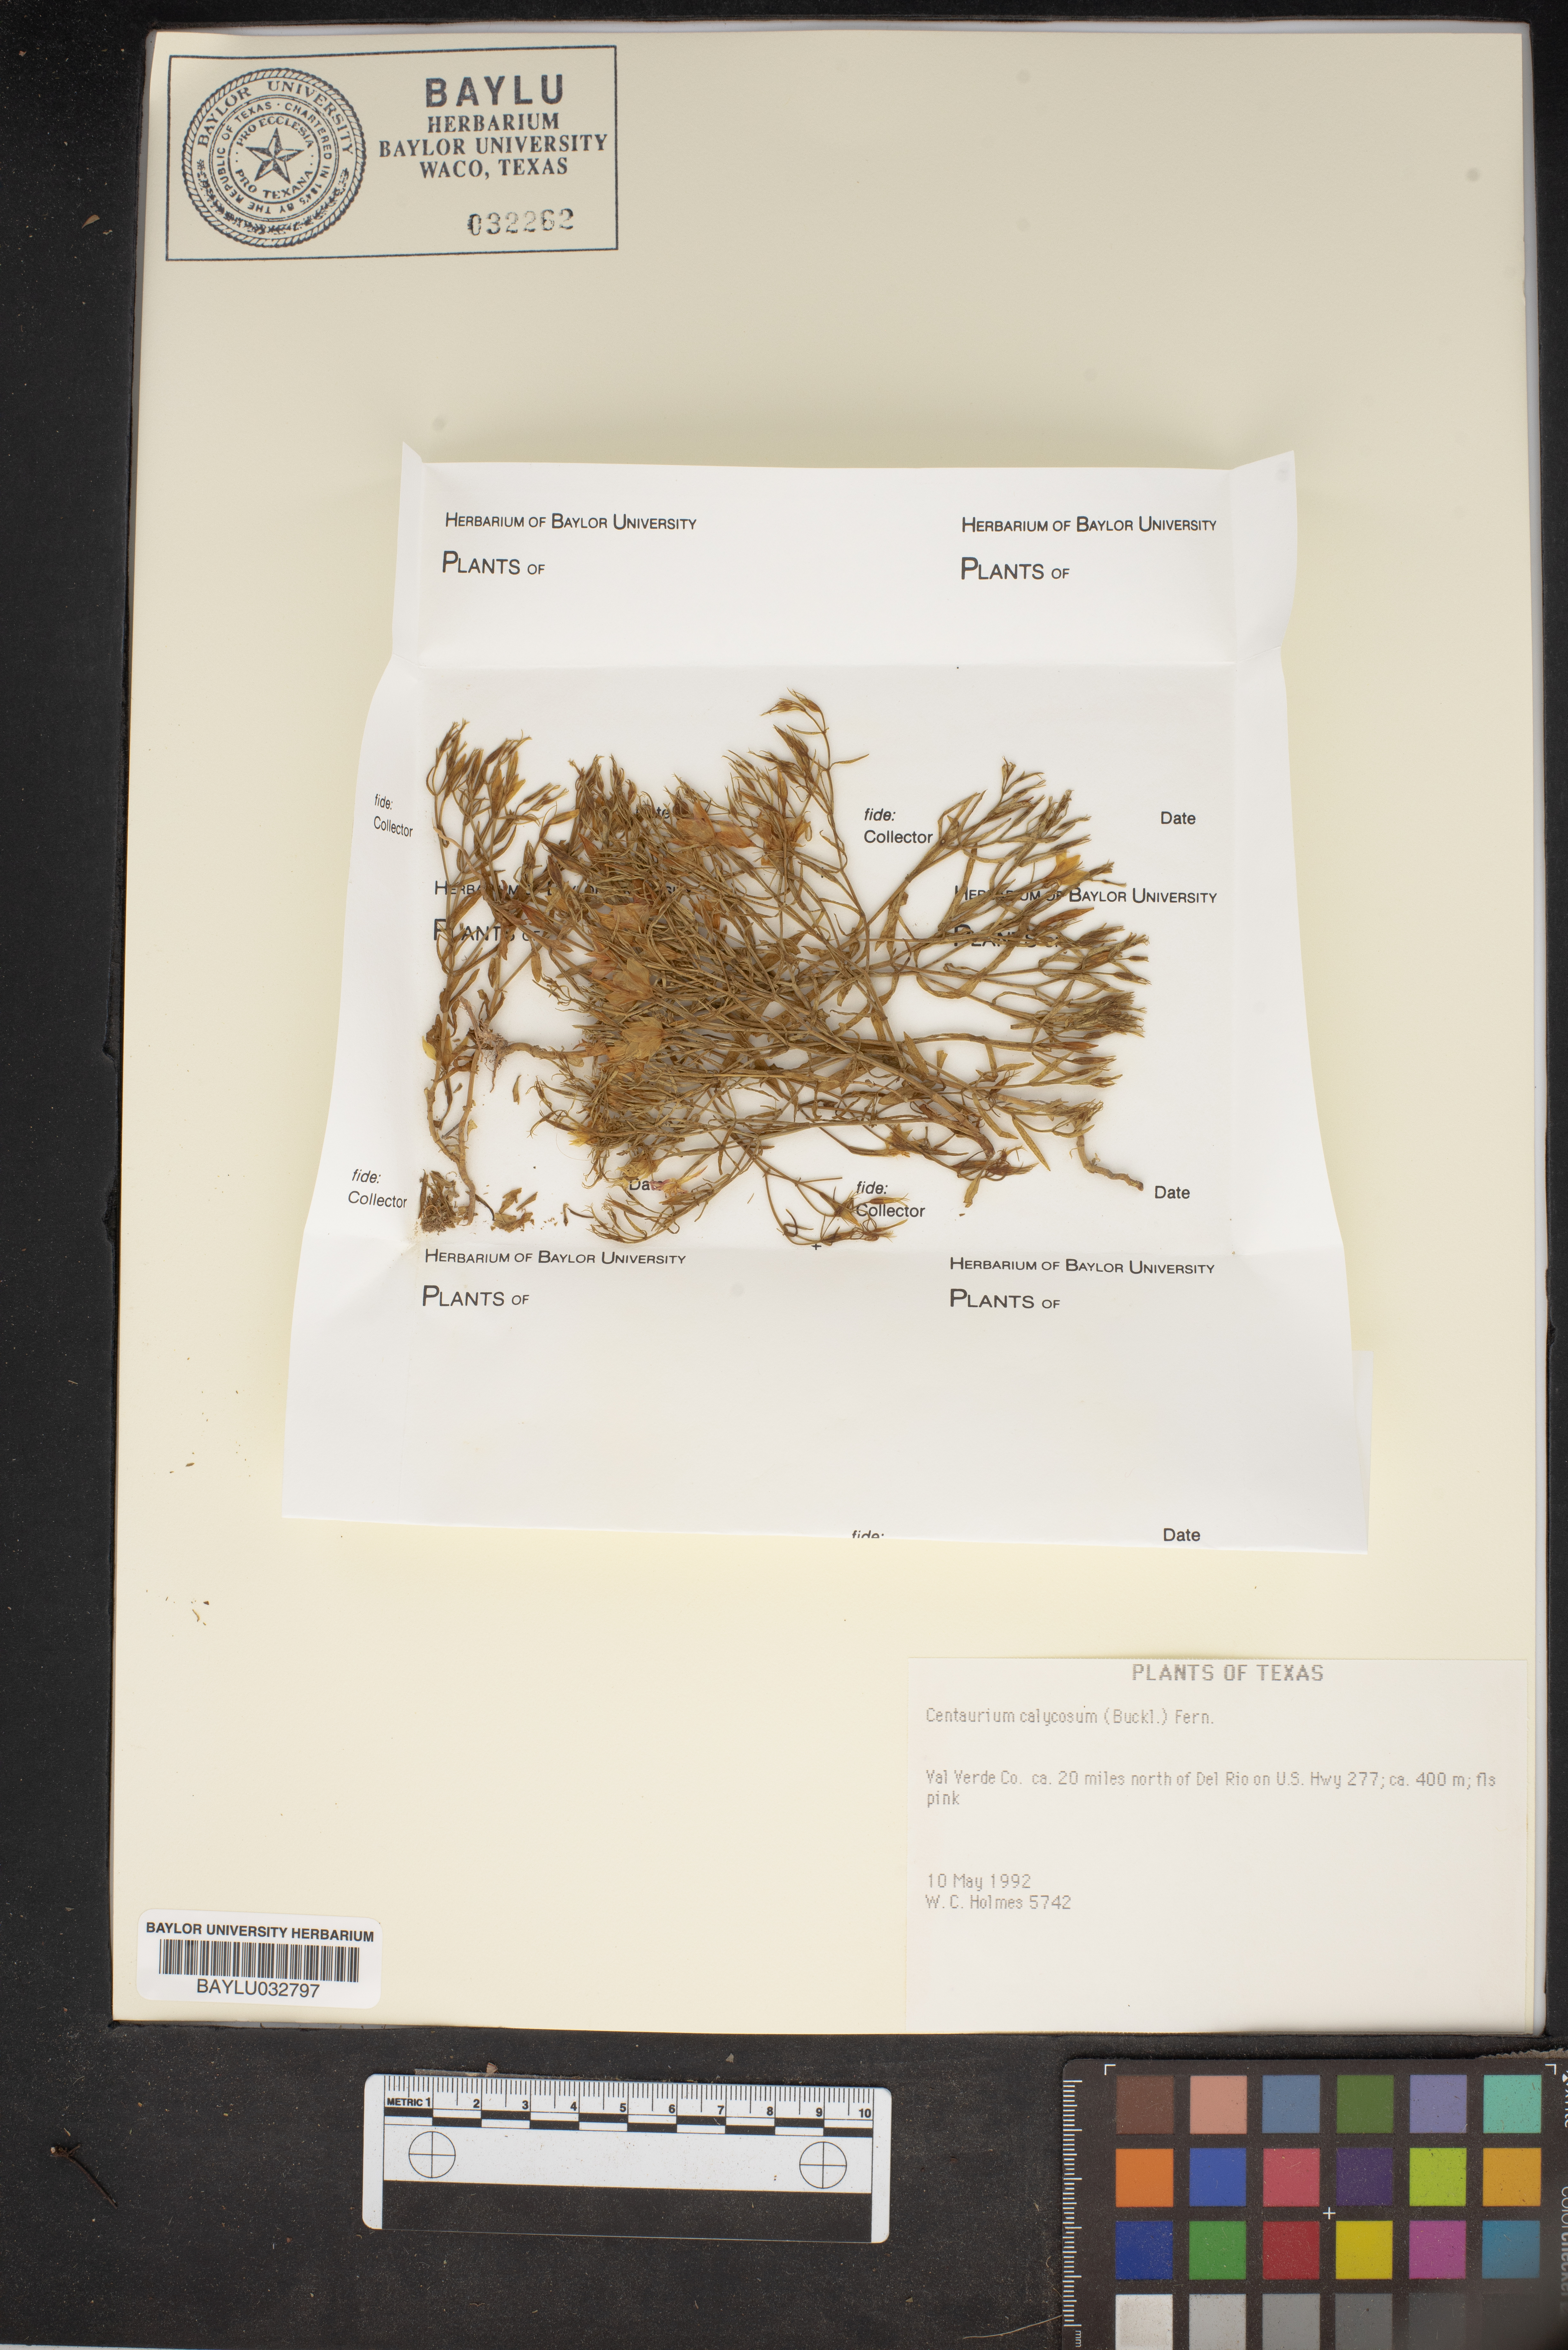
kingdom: Plantae
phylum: Tracheophyta
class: Magnoliopsida
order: Gentianales
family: Gentianaceae
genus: Zeltnera
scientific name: Zeltnera calycosa
